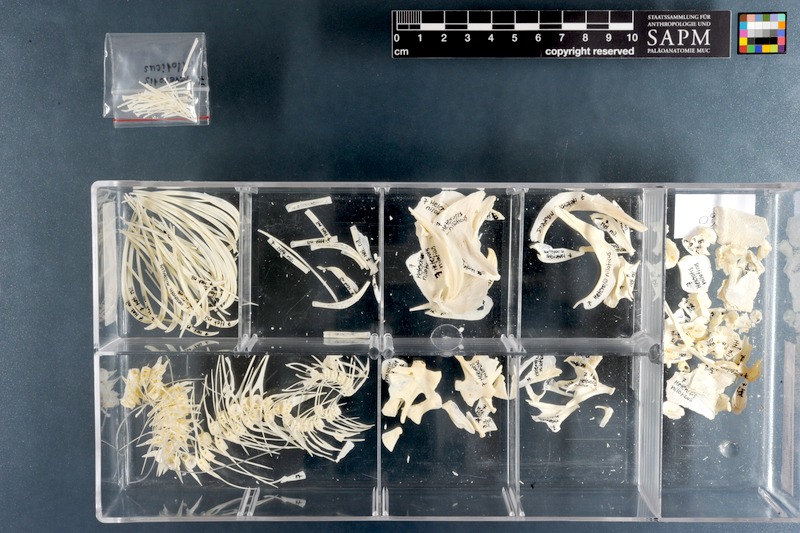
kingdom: Animalia
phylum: Chordata
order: Osteoglossiformes
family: Arapaimidae
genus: Heterotis
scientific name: Heterotis niloticus
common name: African bonytongue
